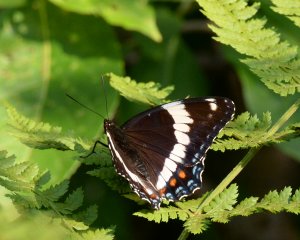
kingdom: Animalia
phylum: Arthropoda
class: Insecta
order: Lepidoptera
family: Nymphalidae
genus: Limenitis
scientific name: Limenitis arthemis
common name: Red-spotted Admiral
